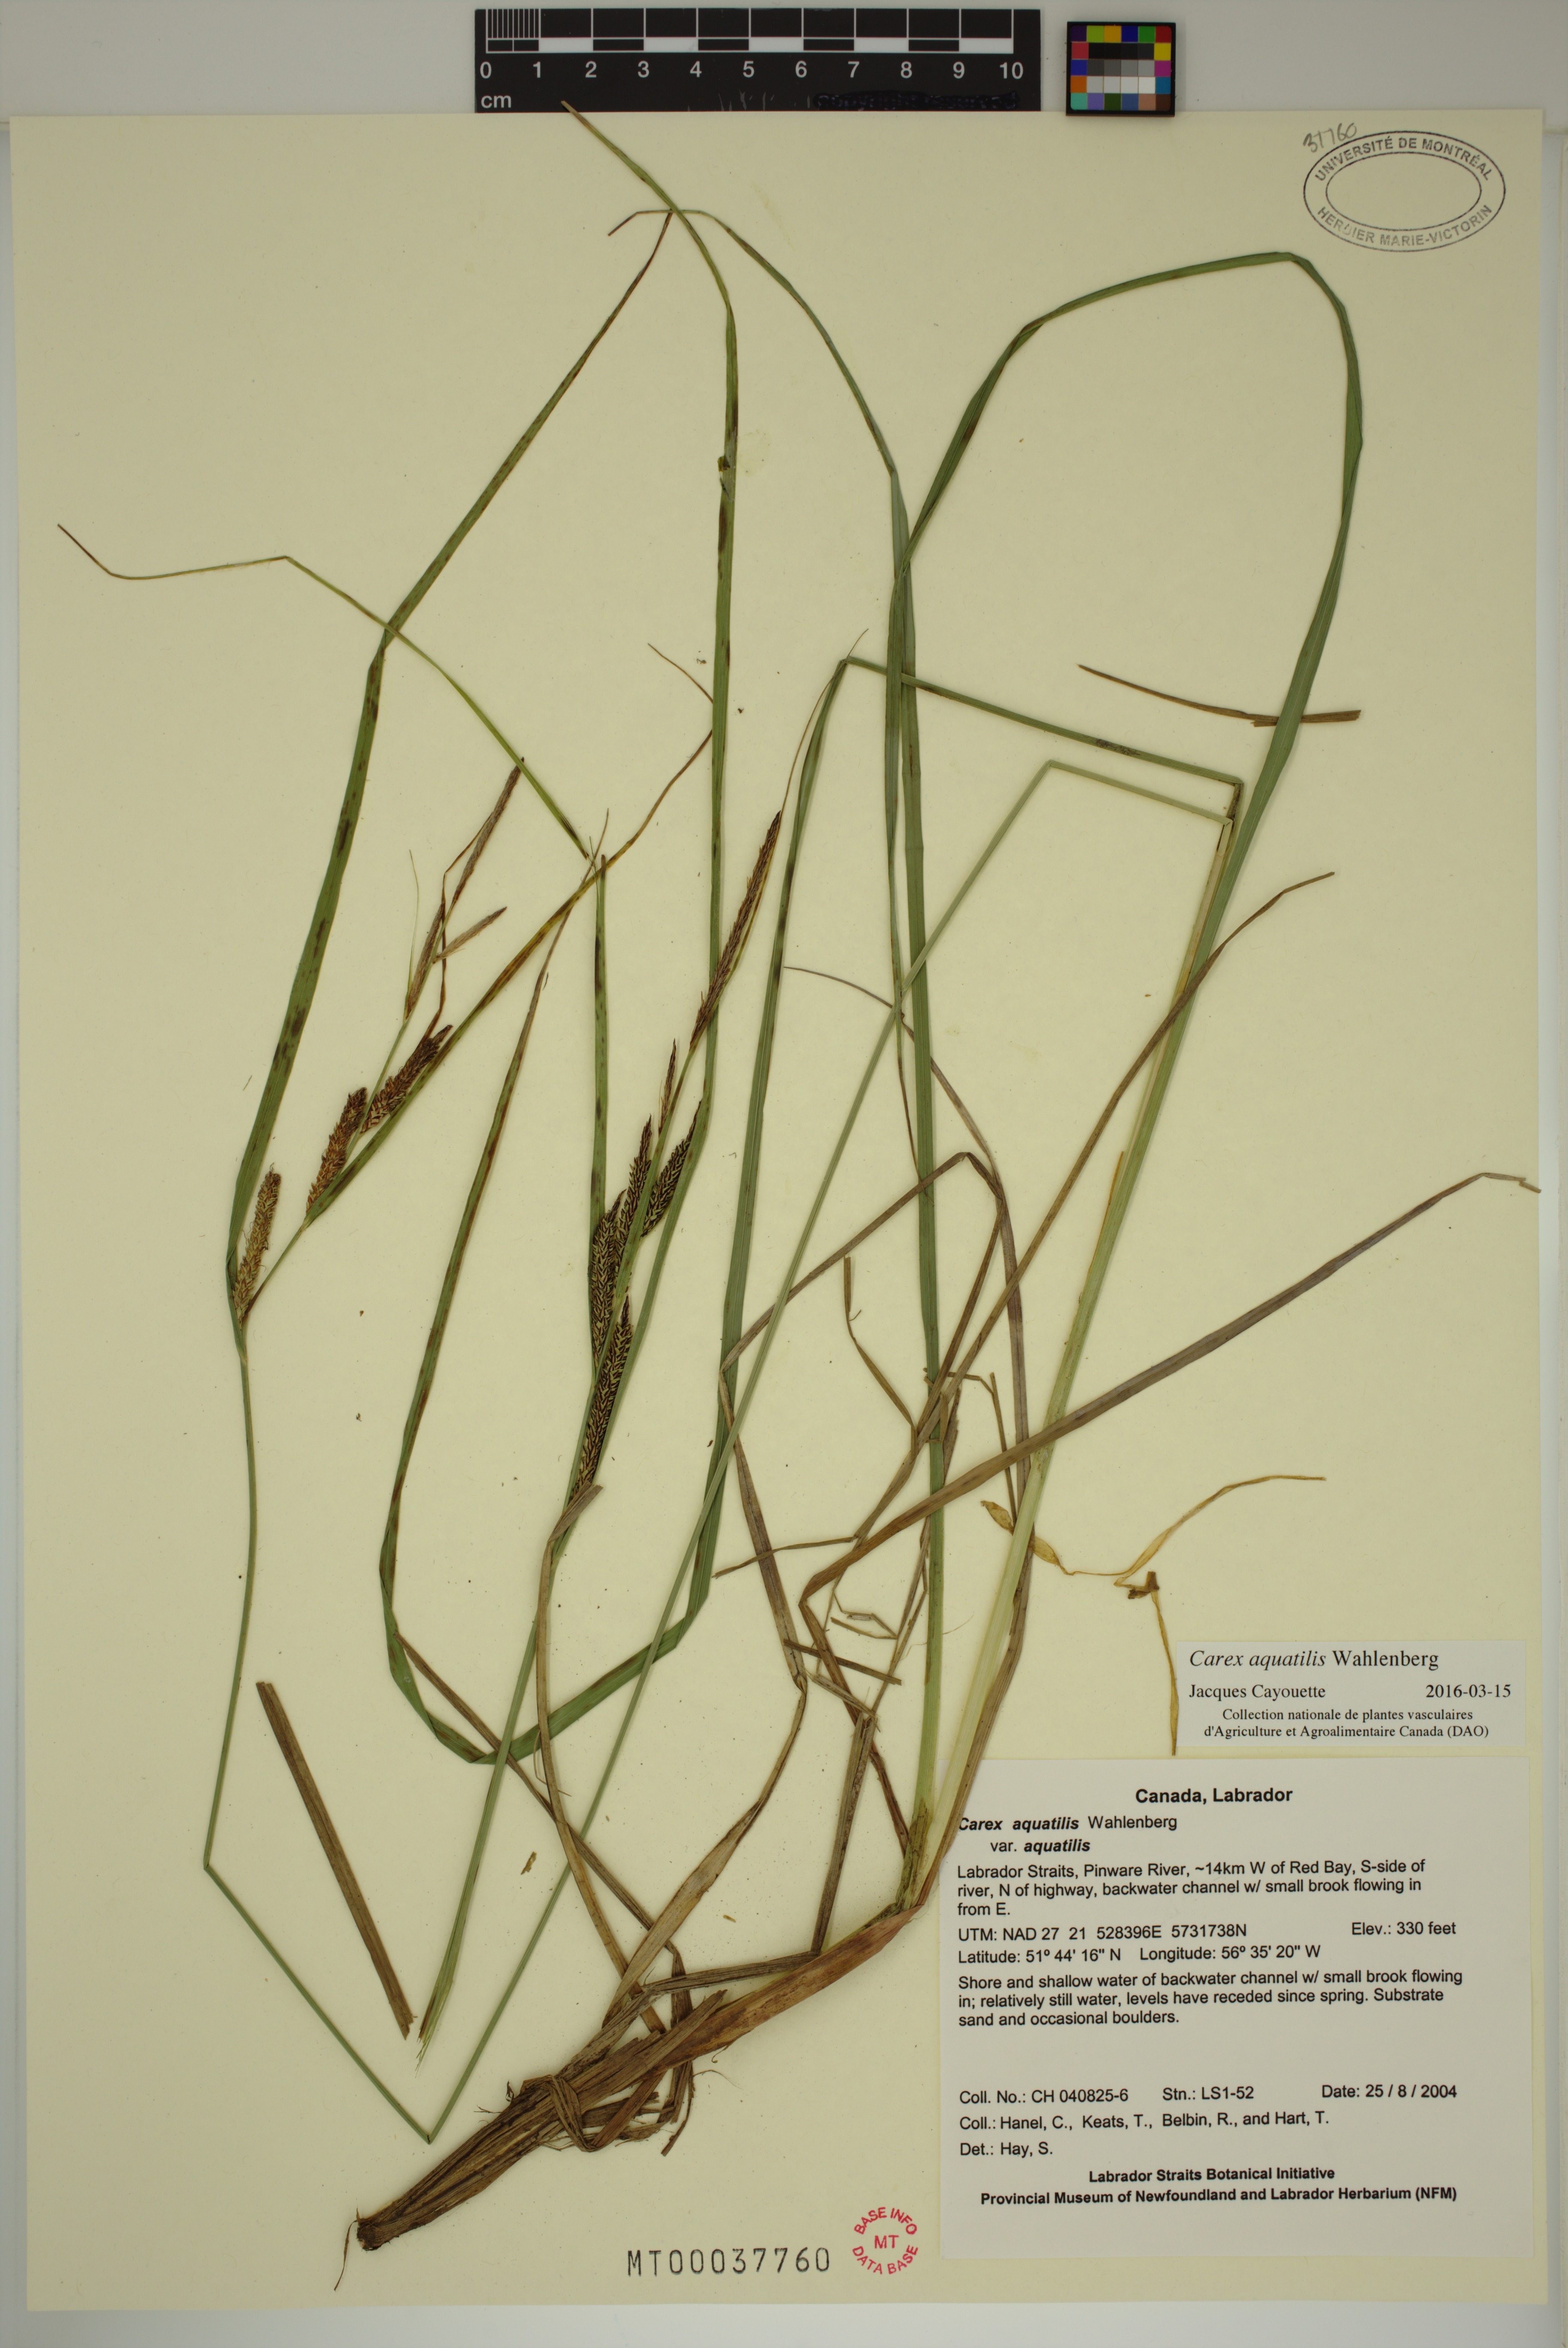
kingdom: Plantae
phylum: Tracheophyta
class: Liliopsida
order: Poales
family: Cyperaceae
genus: Carex
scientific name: Carex aquatilis
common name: Water sedge
